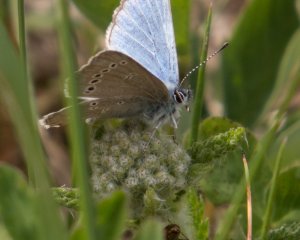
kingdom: Animalia
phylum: Arthropoda
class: Insecta
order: Lepidoptera
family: Lycaenidae
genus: Glaucopsyche
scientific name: Glaucopsyche lygdamus
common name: Silvery Blue
